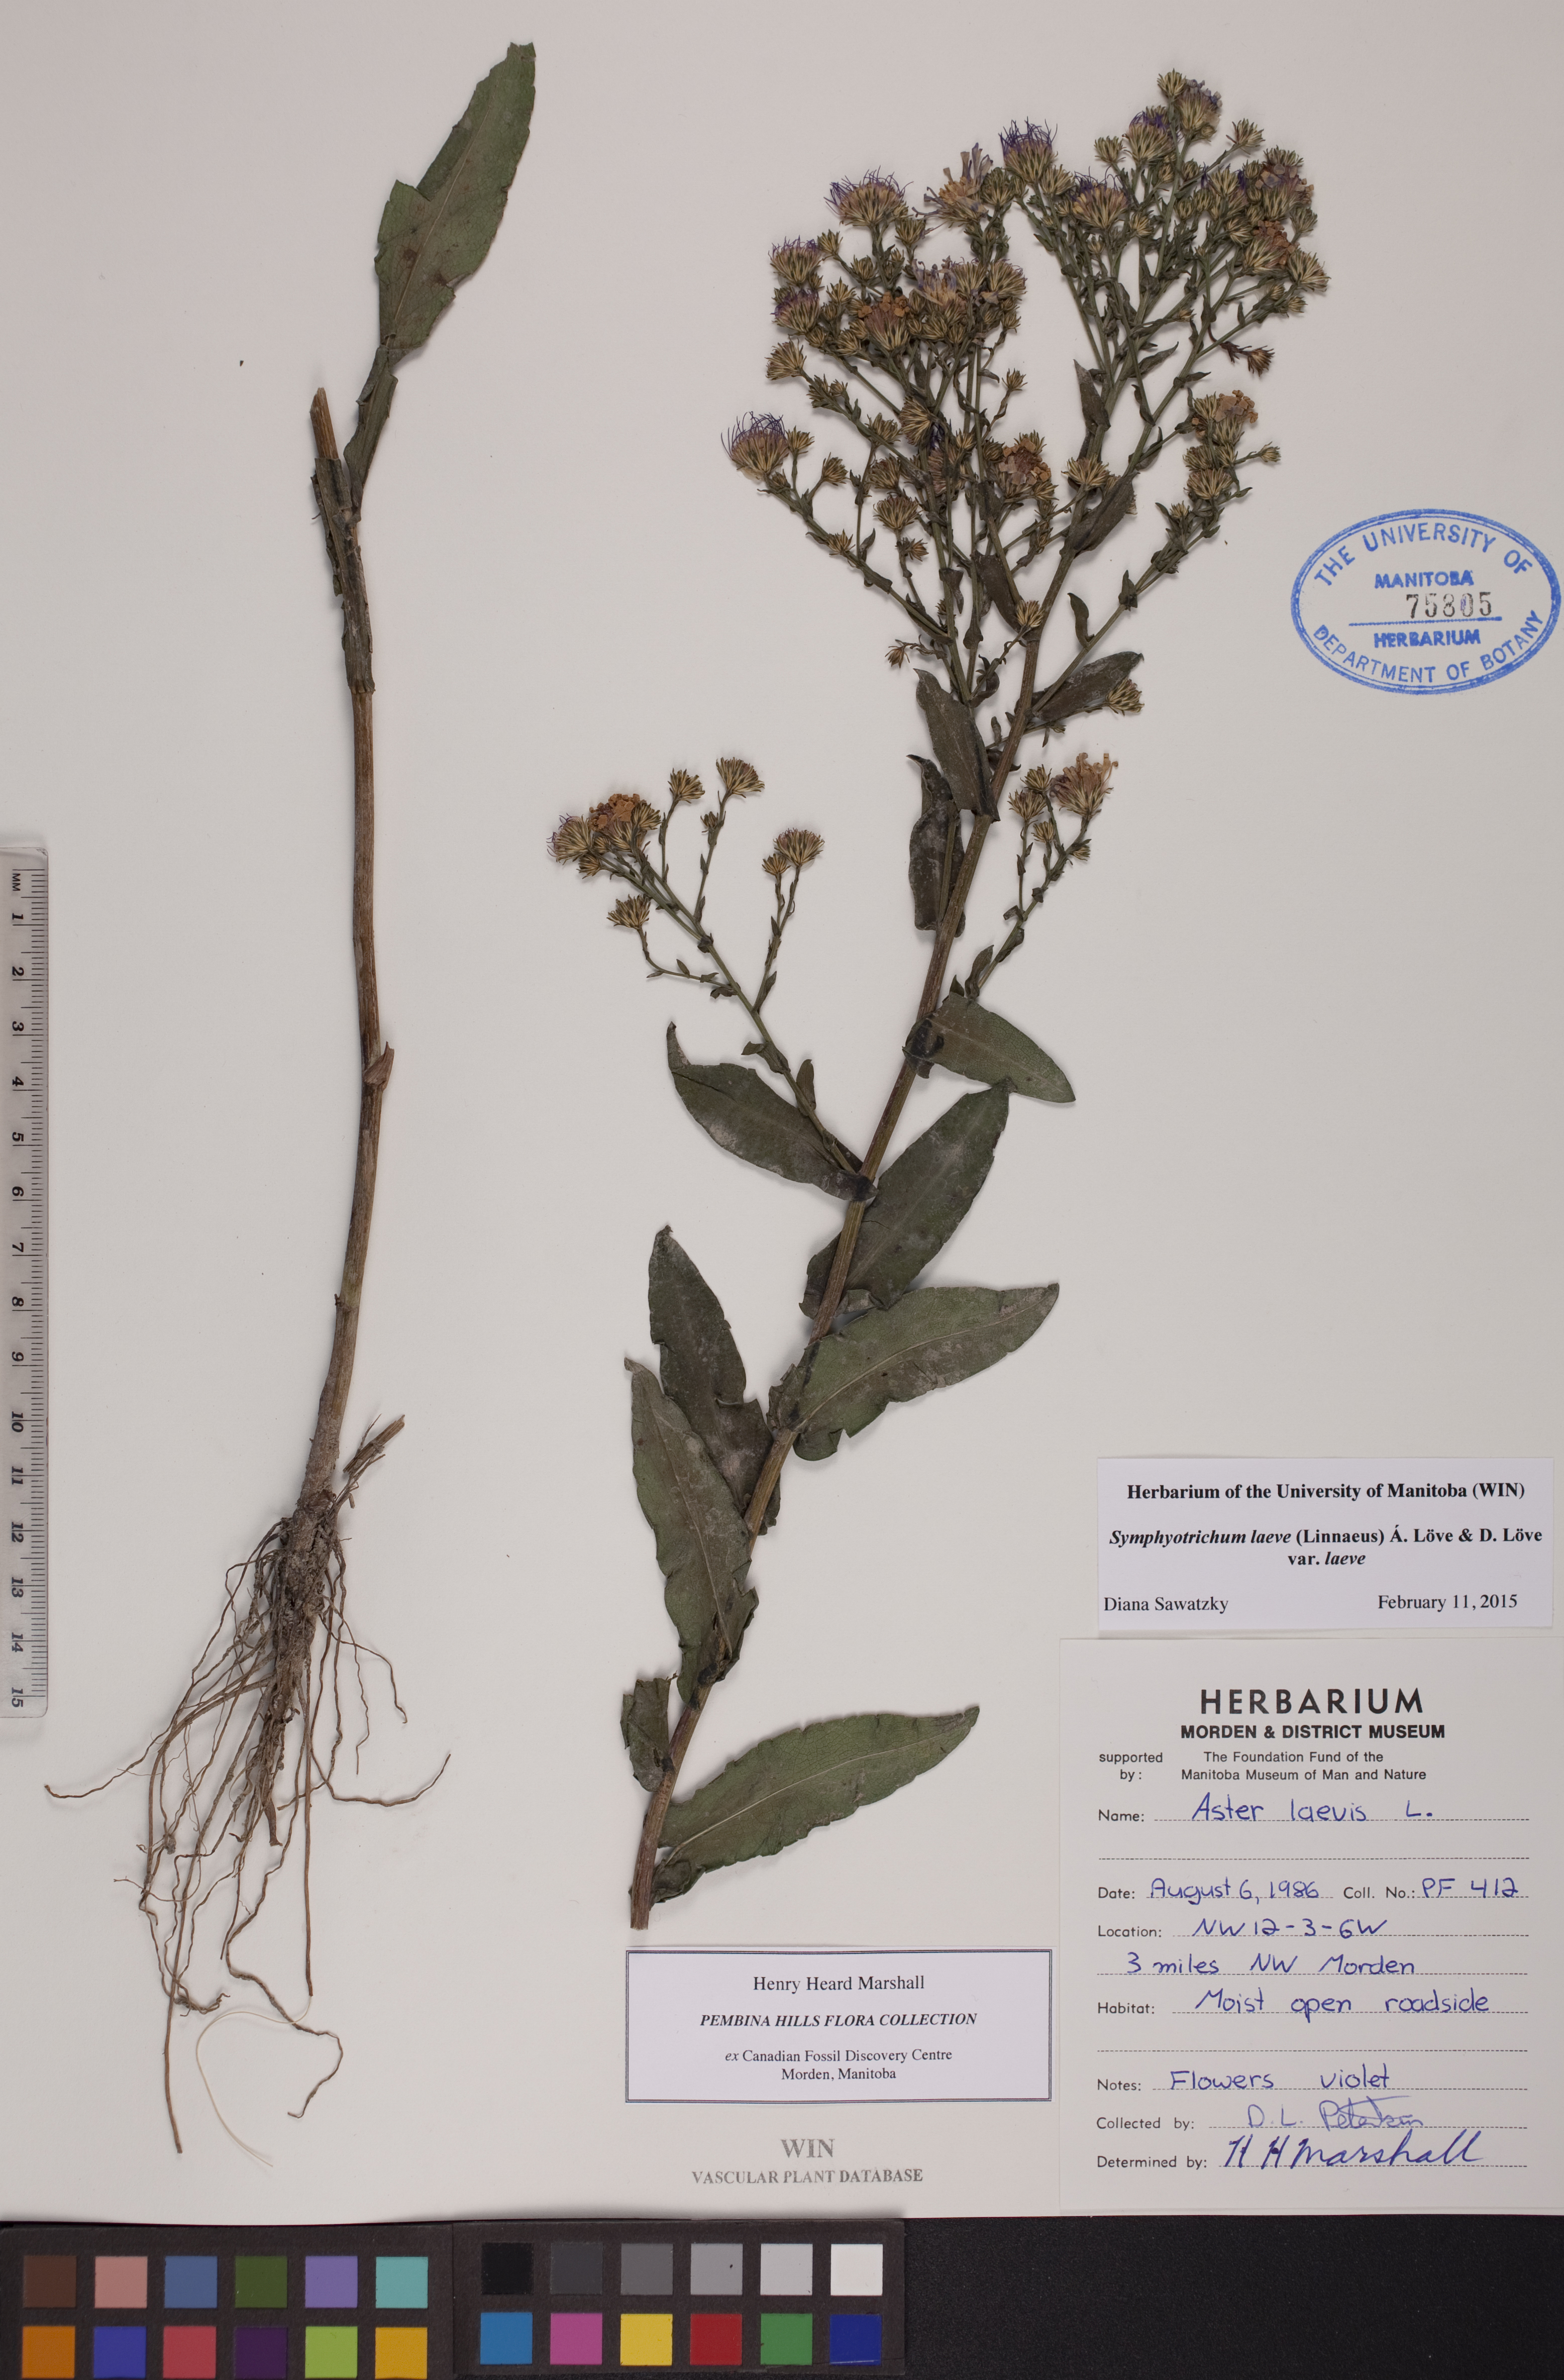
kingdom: Plantae
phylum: Tracheophyta
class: Magnoliopsida
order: Asterales
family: Asteraceae
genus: Symphyotrichum
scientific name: Symphyotrichum laeve
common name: Glaucous aster
